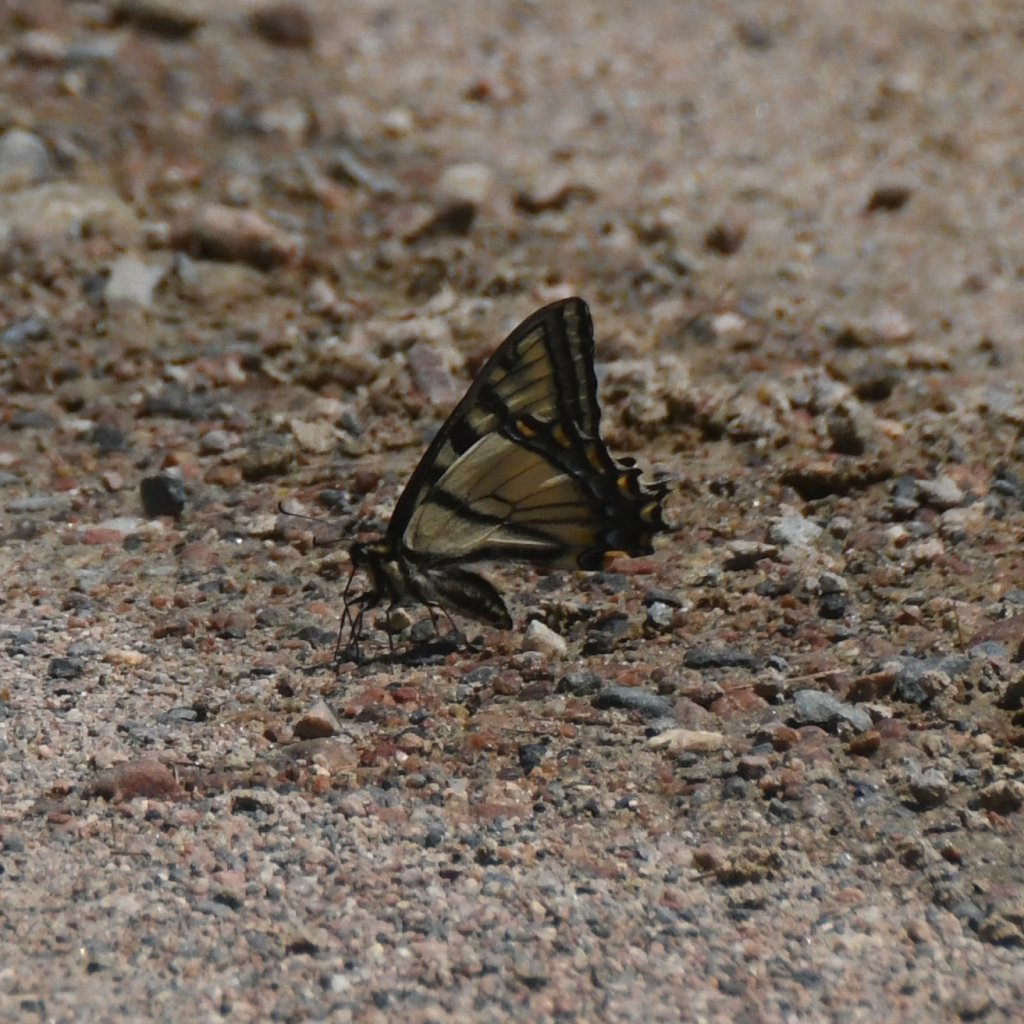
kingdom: Animalia
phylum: Arthropoda
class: Insecta
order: Lepidoptera
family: Papilionidae
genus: Pterourus
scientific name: Pterourus canadensis
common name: Canadian Tiger Swallowtail
